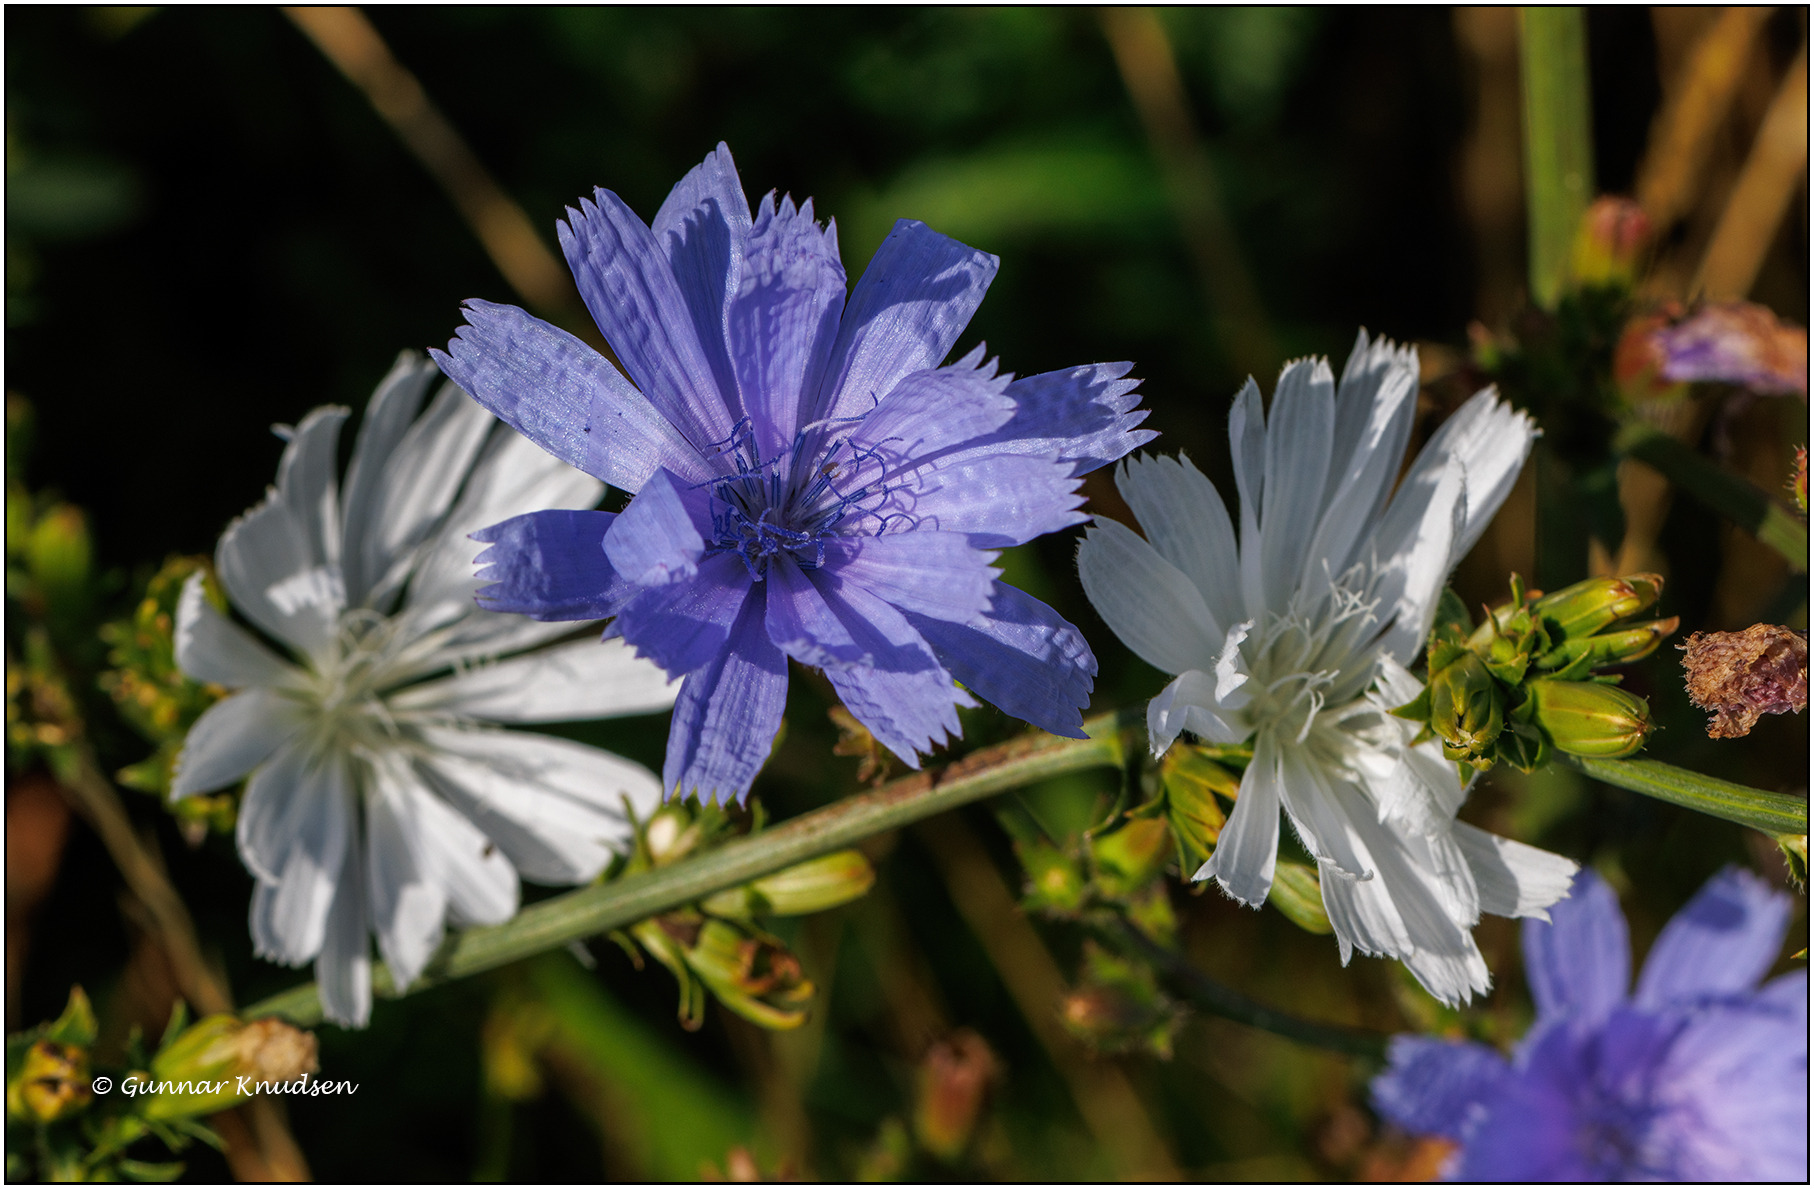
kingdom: Plantae
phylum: Tracheophyta
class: Magnoliopsida
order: Asterales
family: Asteraceae
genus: Cichorium
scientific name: Cichorium intybus
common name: Cikorie (varietet)
